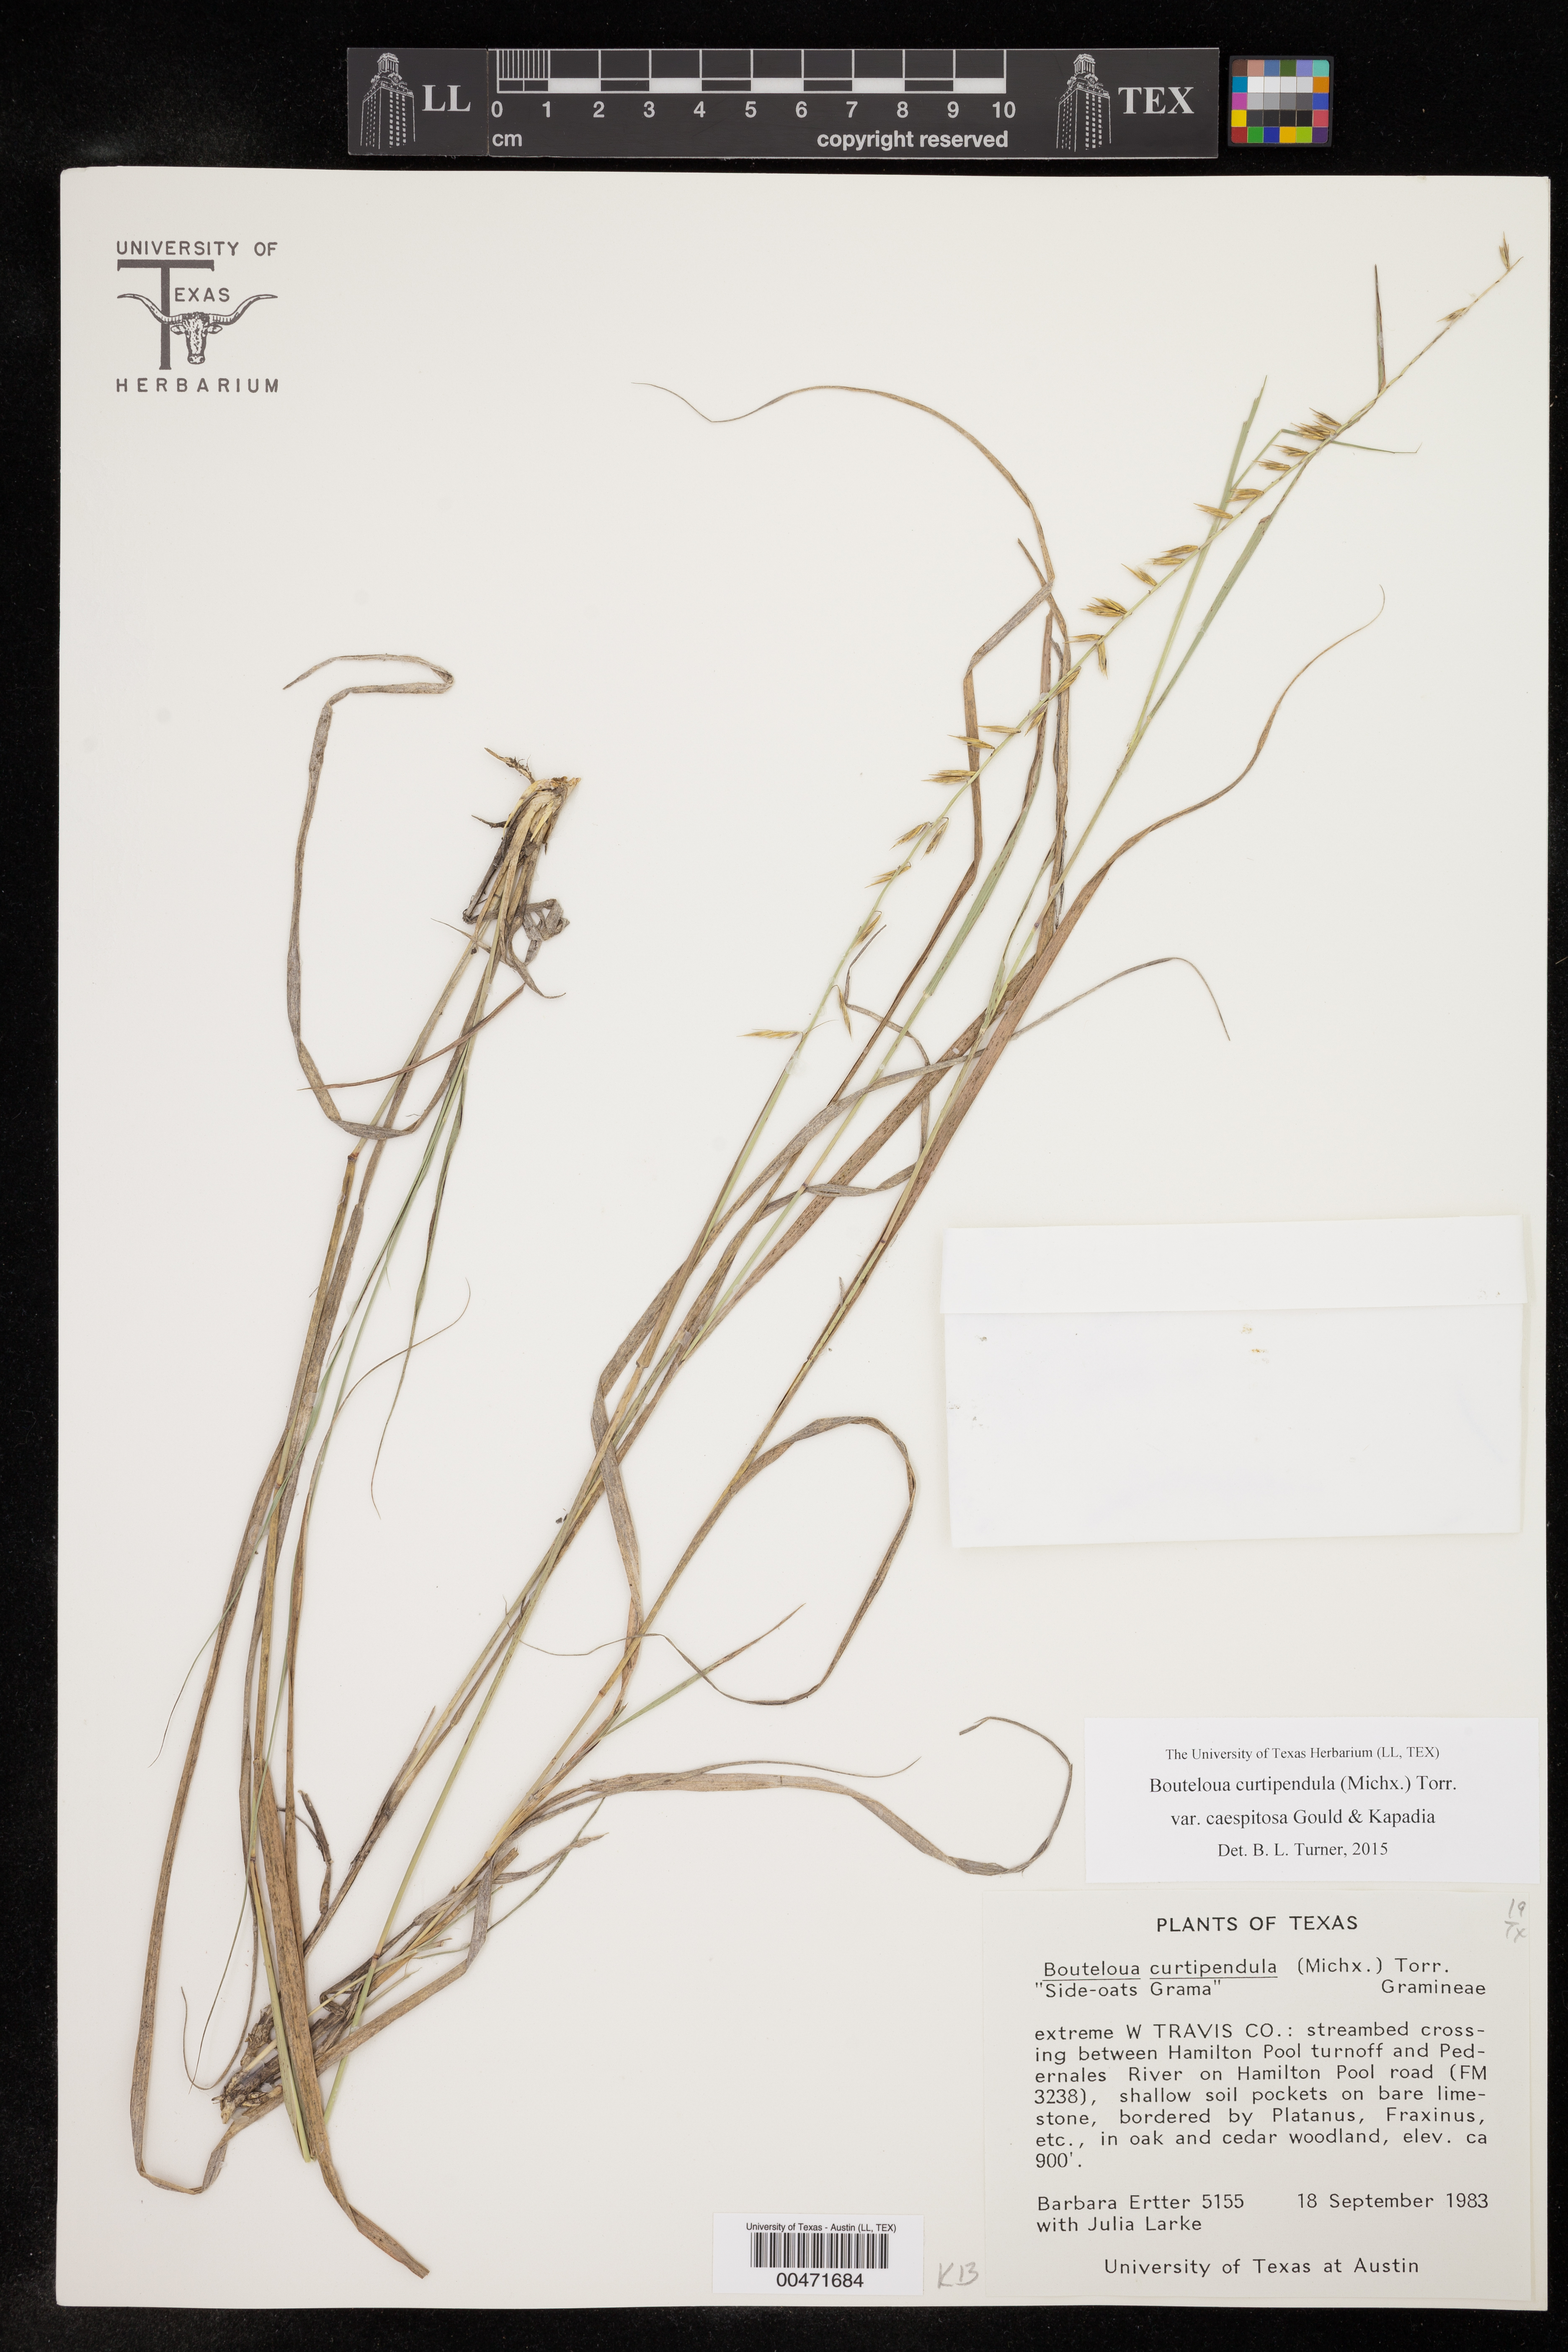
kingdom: Plantae
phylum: Tracheophyta
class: Liliopsida
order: Poales
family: Poaceae
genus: Bouteloua
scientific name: Bouteloua curtipendula
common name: Side-oats grama
